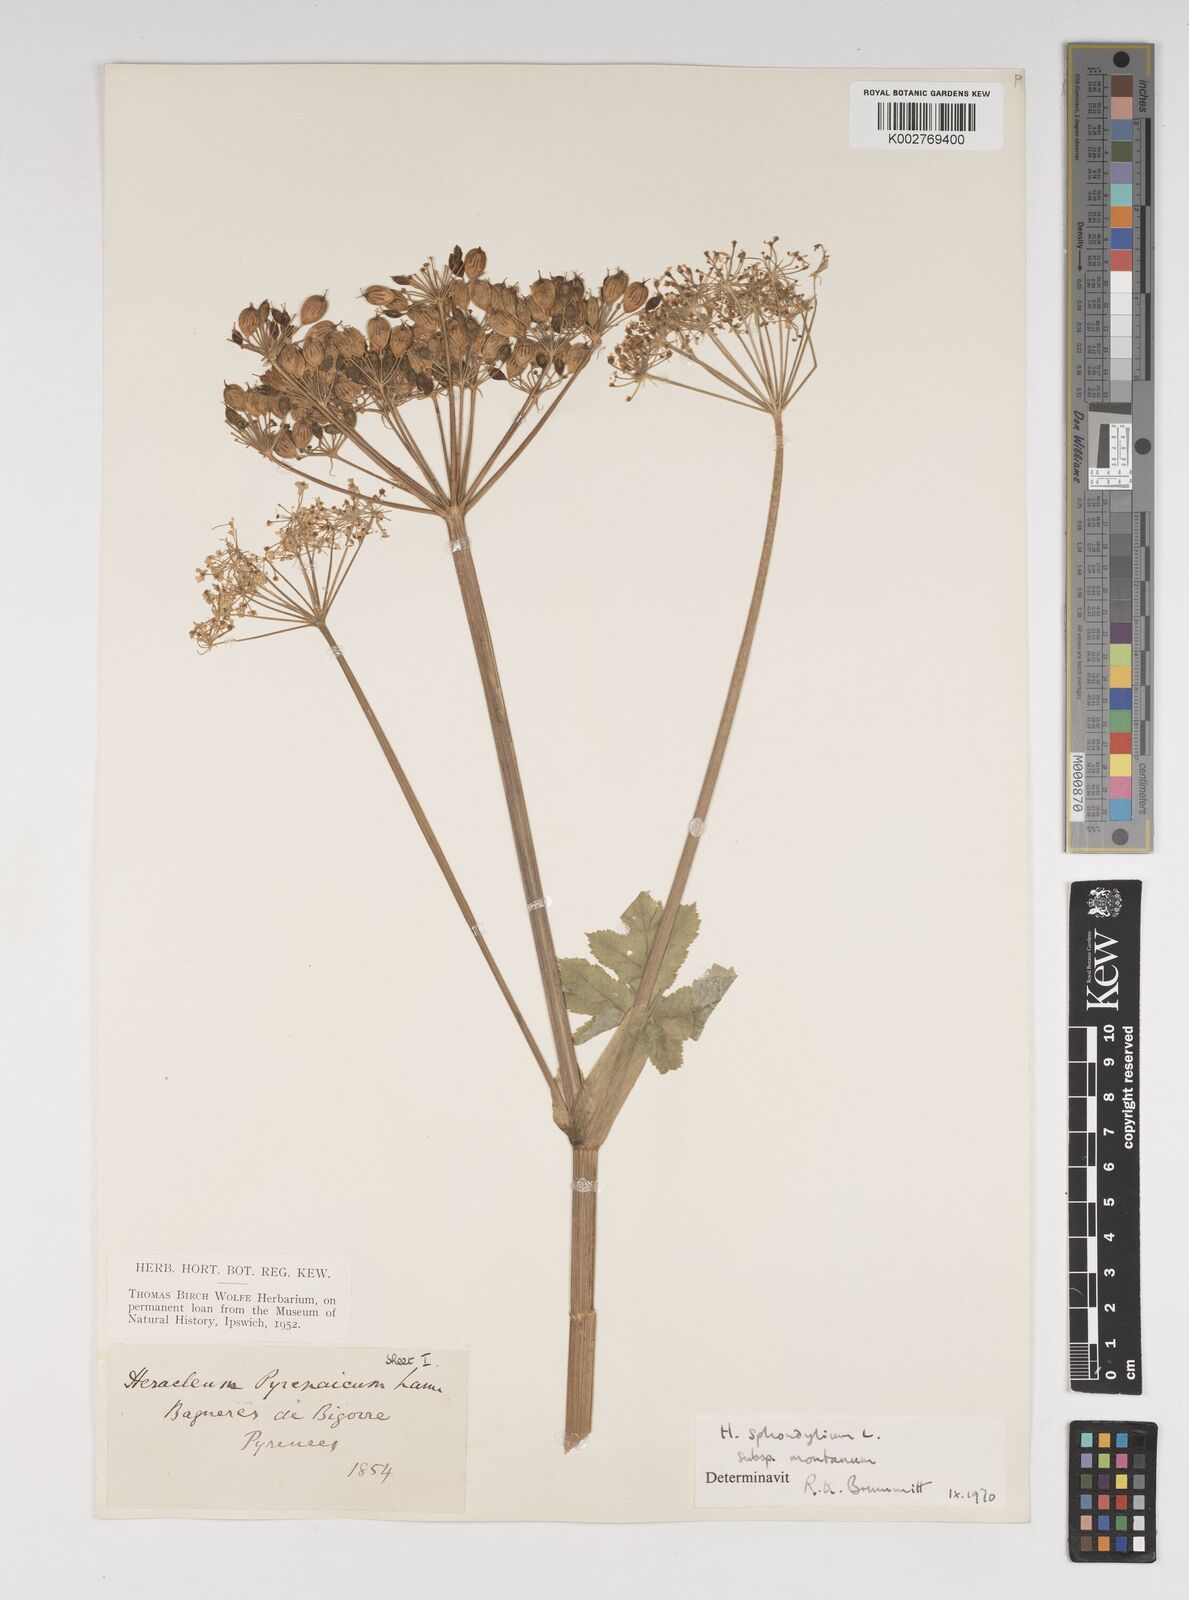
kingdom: Plantae
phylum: Tracheophyta
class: Magnoliopsida
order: Apiales
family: Apiaceae
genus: Heracleum
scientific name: Heracleum sphondylium
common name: Hogweed
